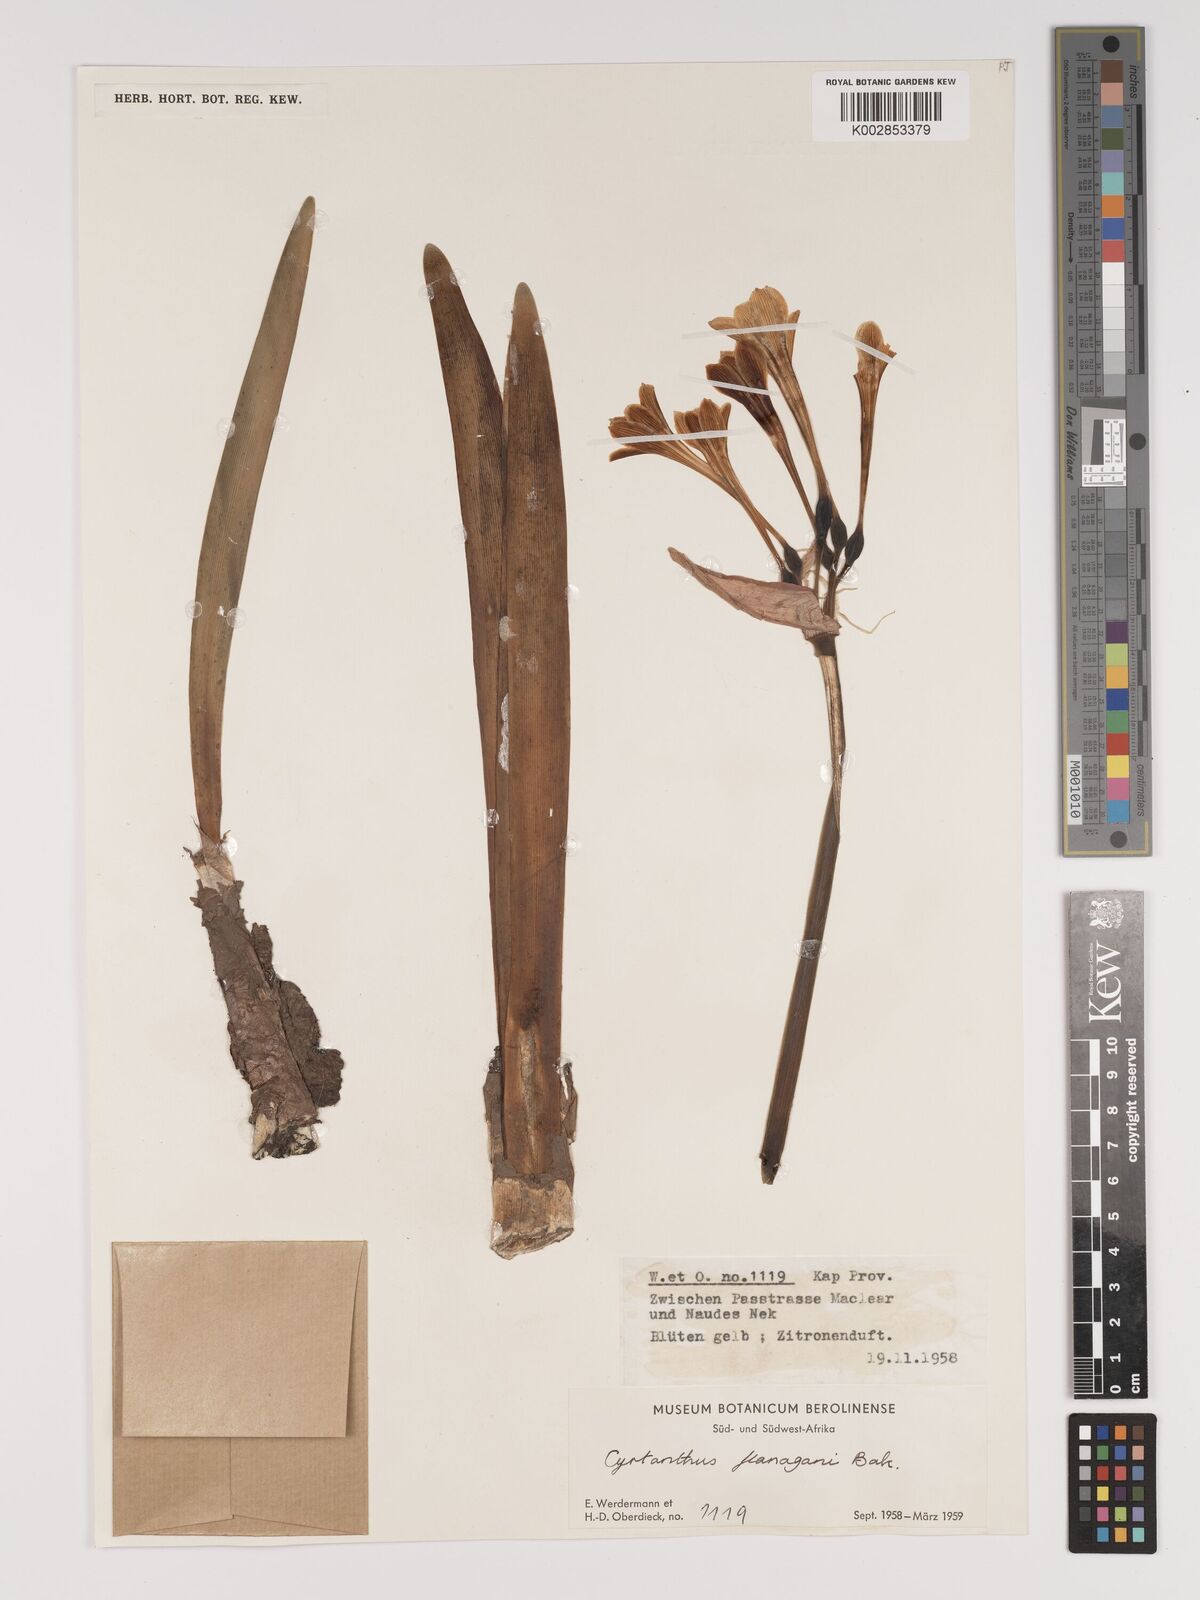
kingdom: Plantae
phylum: Tracheophyta
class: Liliopsida
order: Asparagales
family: Amaryllidaceae
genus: Cyrtanthus
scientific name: Cyrtanthus flanaganii
